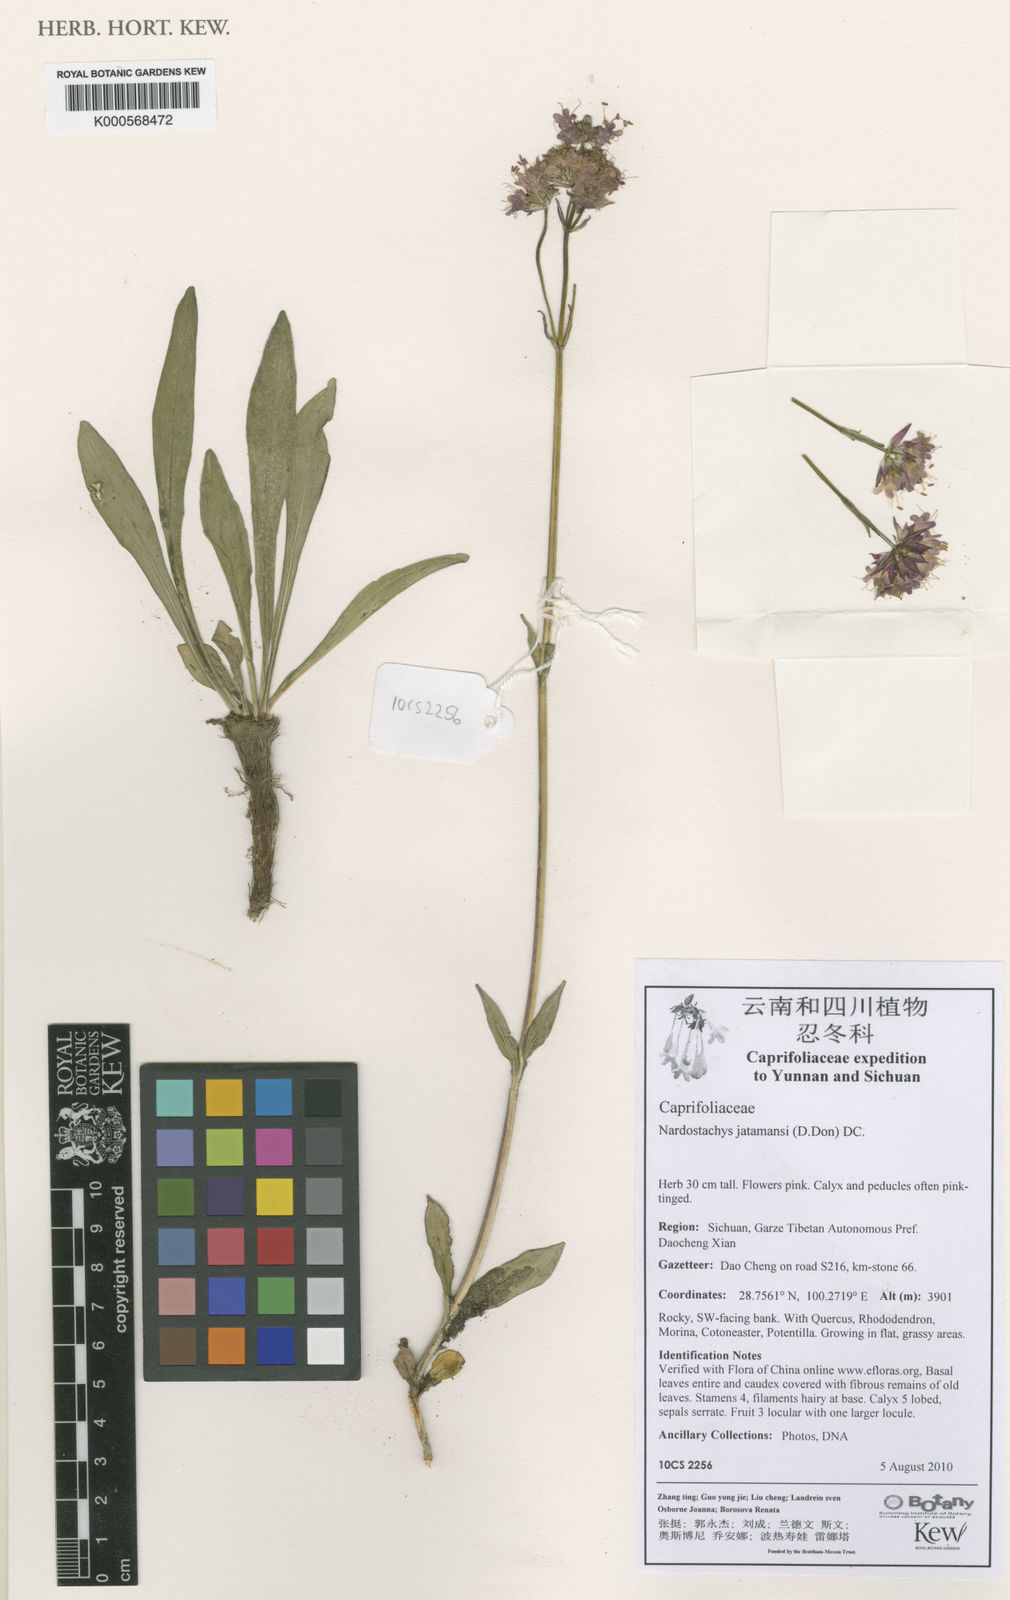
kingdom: Plantae
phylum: Tracheophyta
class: Magnoliopsida
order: Dipsacales
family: Caprifoliaceae
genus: Nardostachys
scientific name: Nardostachys jatamansi
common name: Indian nard
